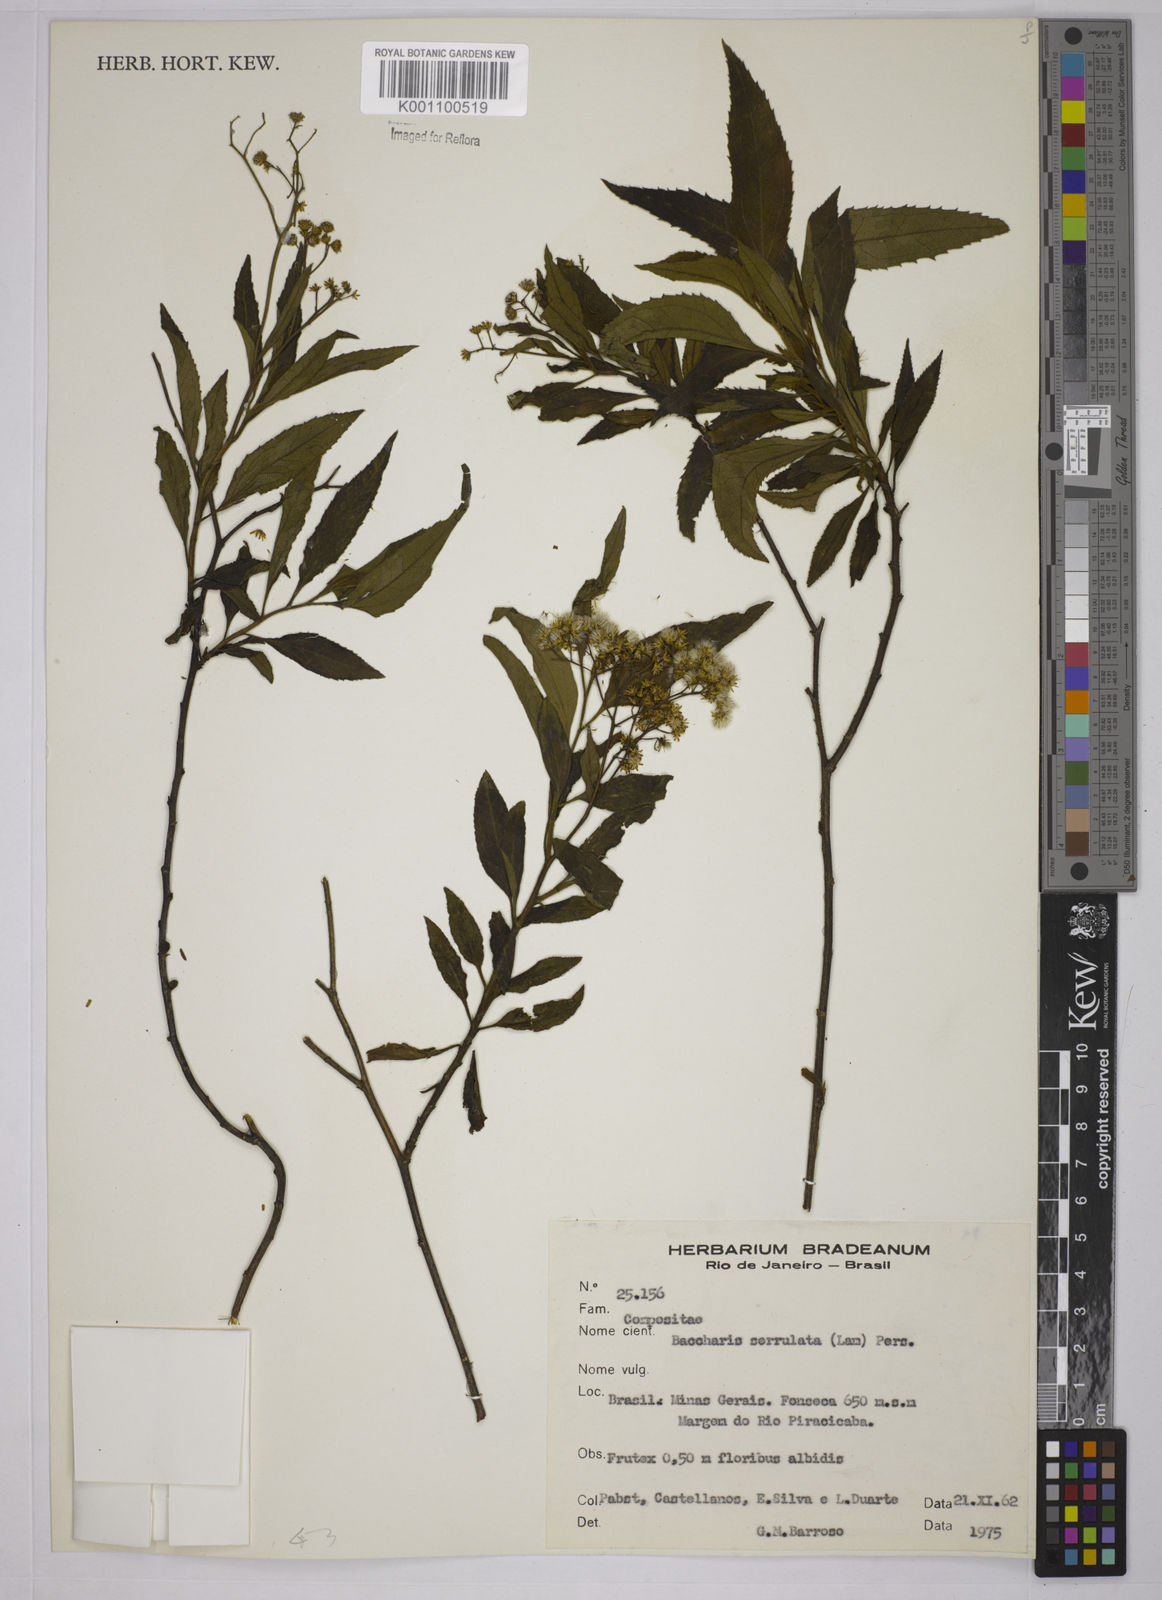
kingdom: Plantae
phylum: Tracheophyta
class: Magnoliopsida
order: Asterales
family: Asteraceae
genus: Baccharis
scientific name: Baccharis serrulata
